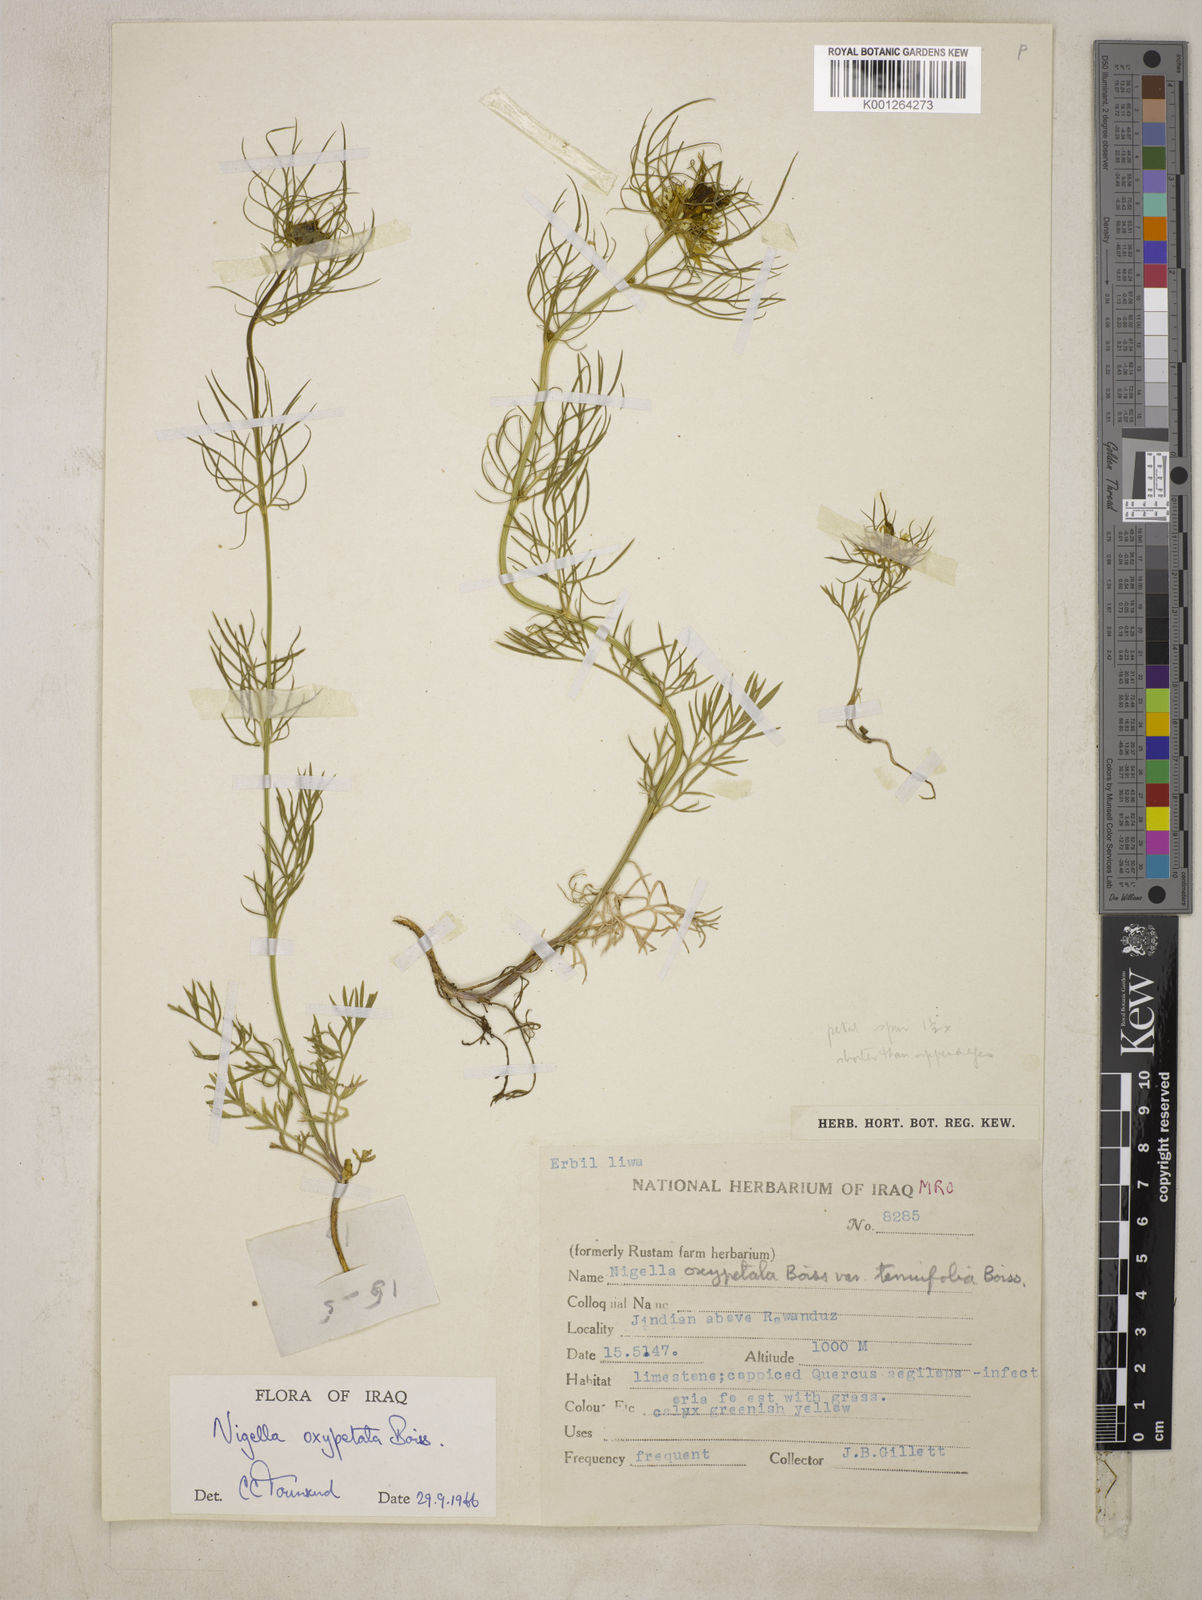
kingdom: Plantae
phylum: Tracheophyta
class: Magnoliopsida
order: Ranunculales
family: Ranunculaceae
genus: Nigella
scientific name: Nigella oxypetala
